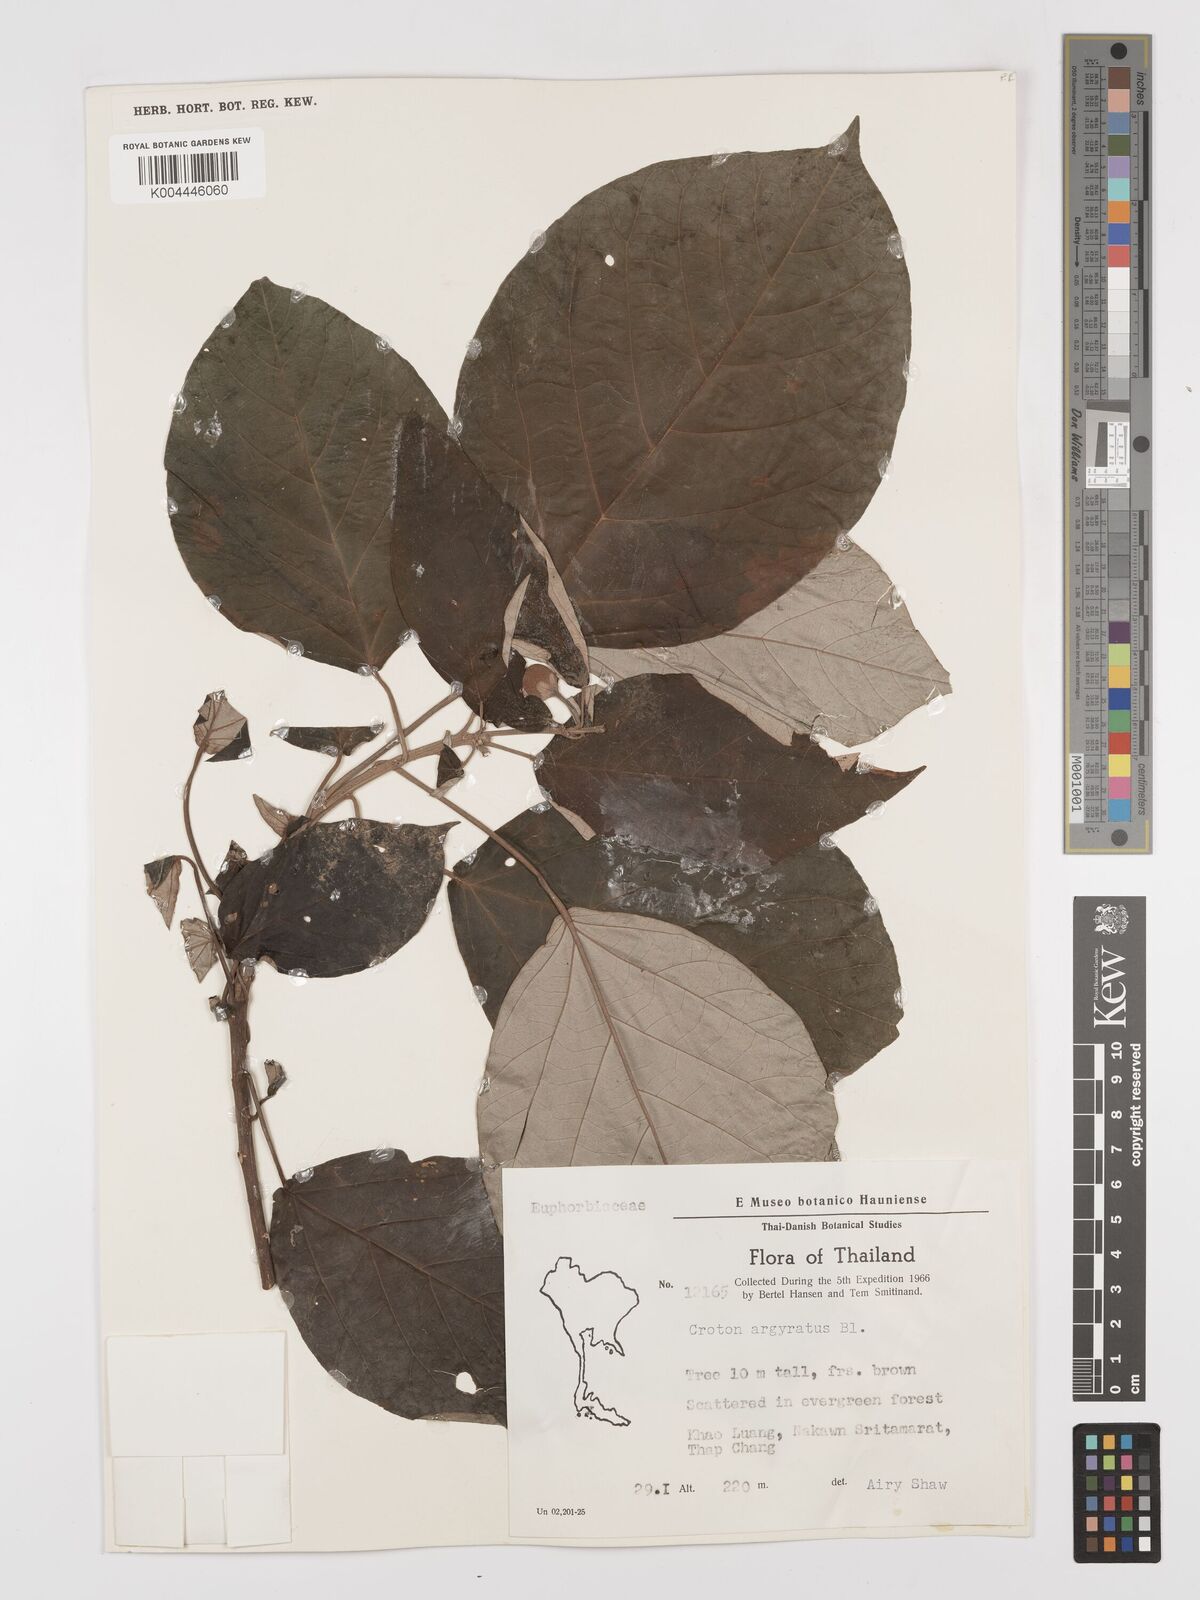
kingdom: Plantae
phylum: Tracheophyta
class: Magnoliopsida
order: Malpighiales
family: Euphorbiaceae
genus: Croton
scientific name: Croton argyratus
